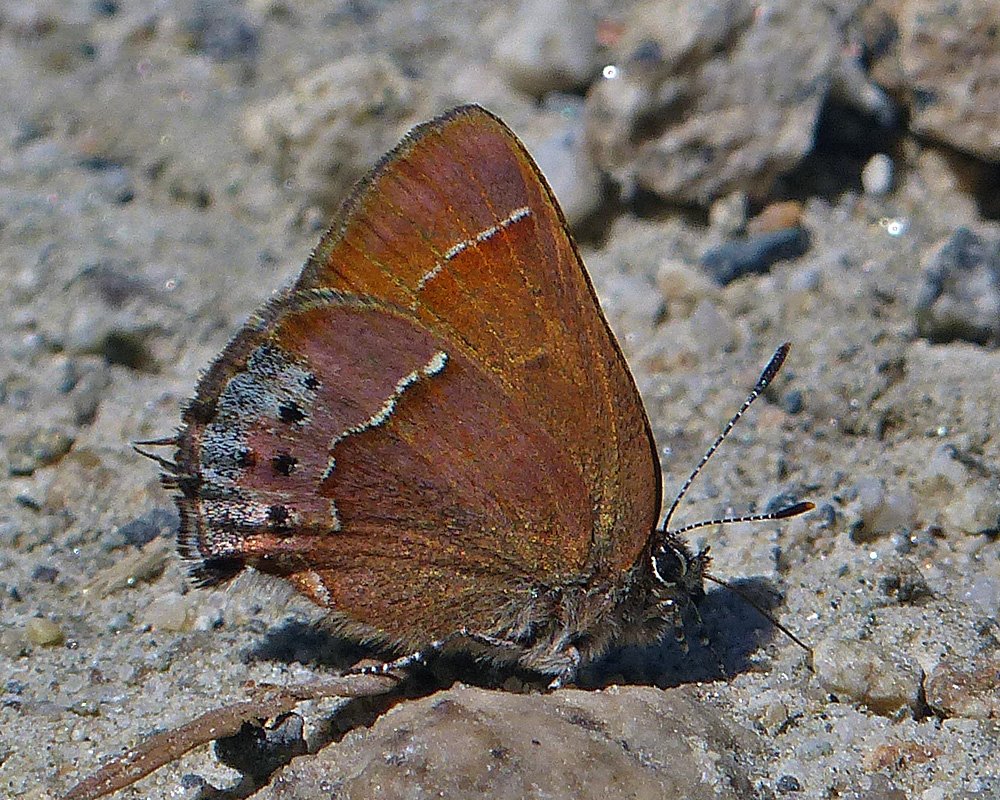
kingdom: Animalia
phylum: Arthropoda
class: Insecta
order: Lepidoptera
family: Lycaenidae
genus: Mitoura
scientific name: Mitoura nelsoni
